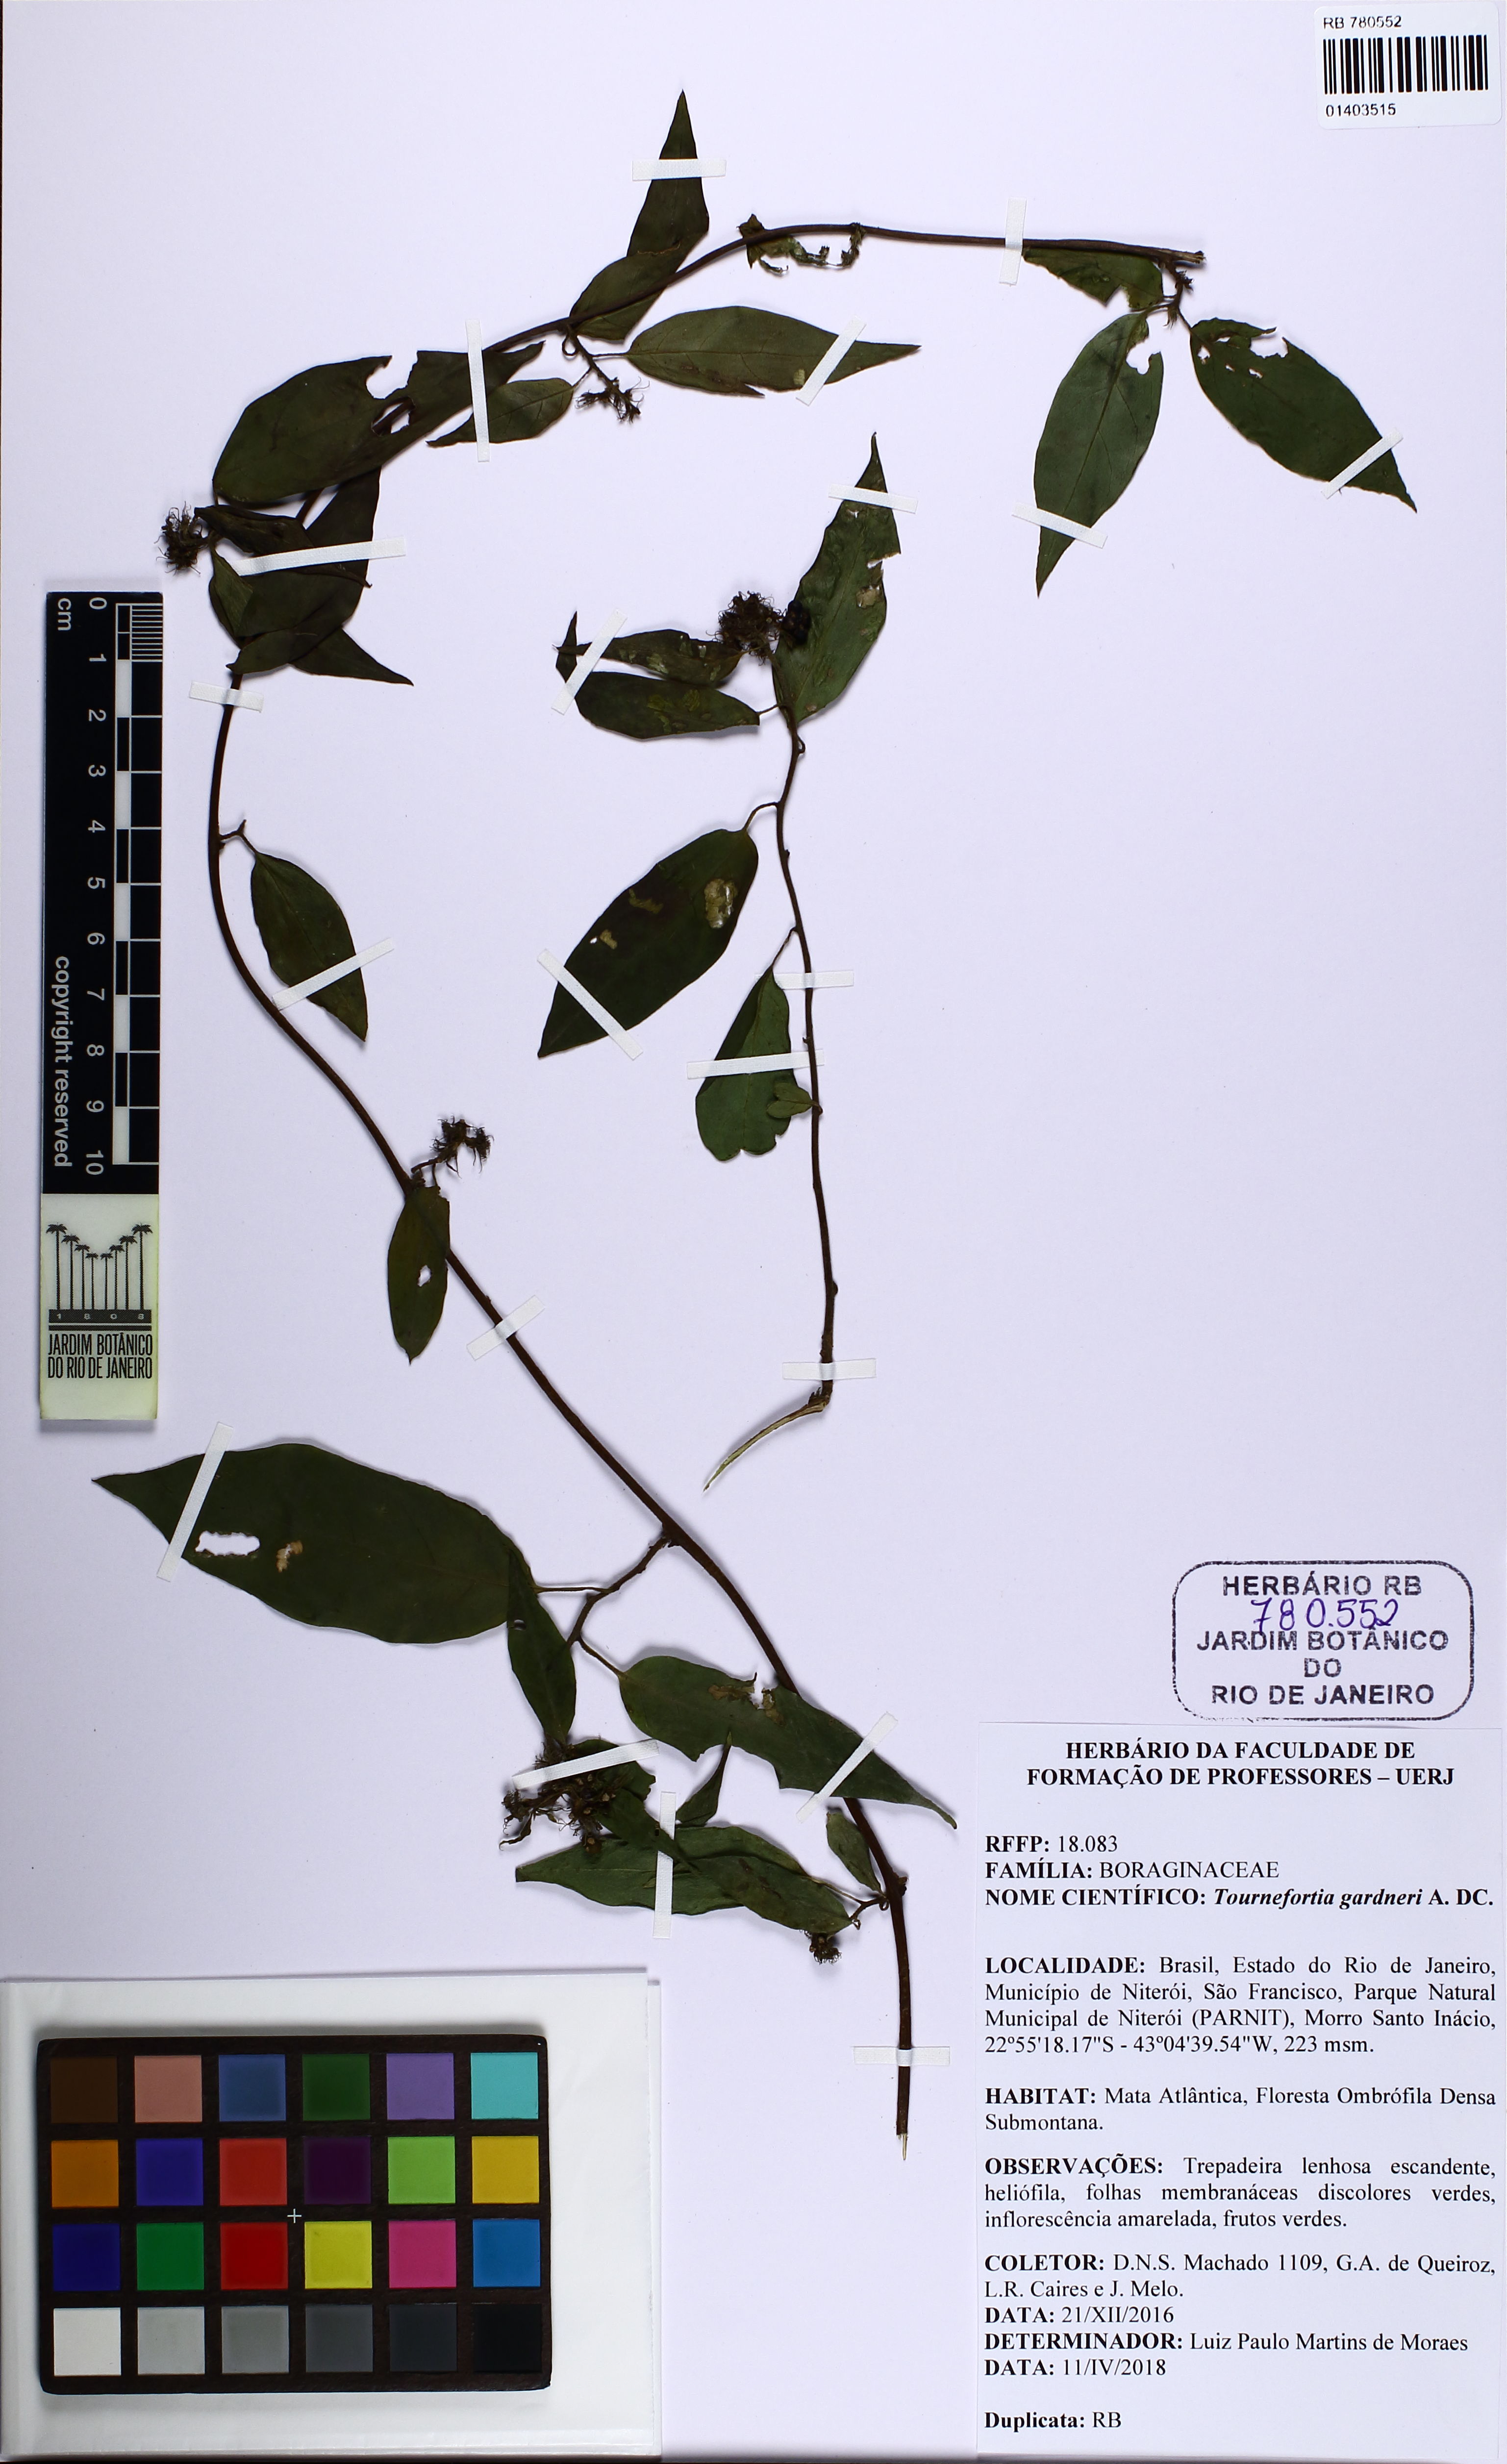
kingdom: Plantae
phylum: Tracheophyta
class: Magnoliopsida
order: Boraginales
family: Heliotropiaceae
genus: Myriopus
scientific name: Myriopus gardneri
